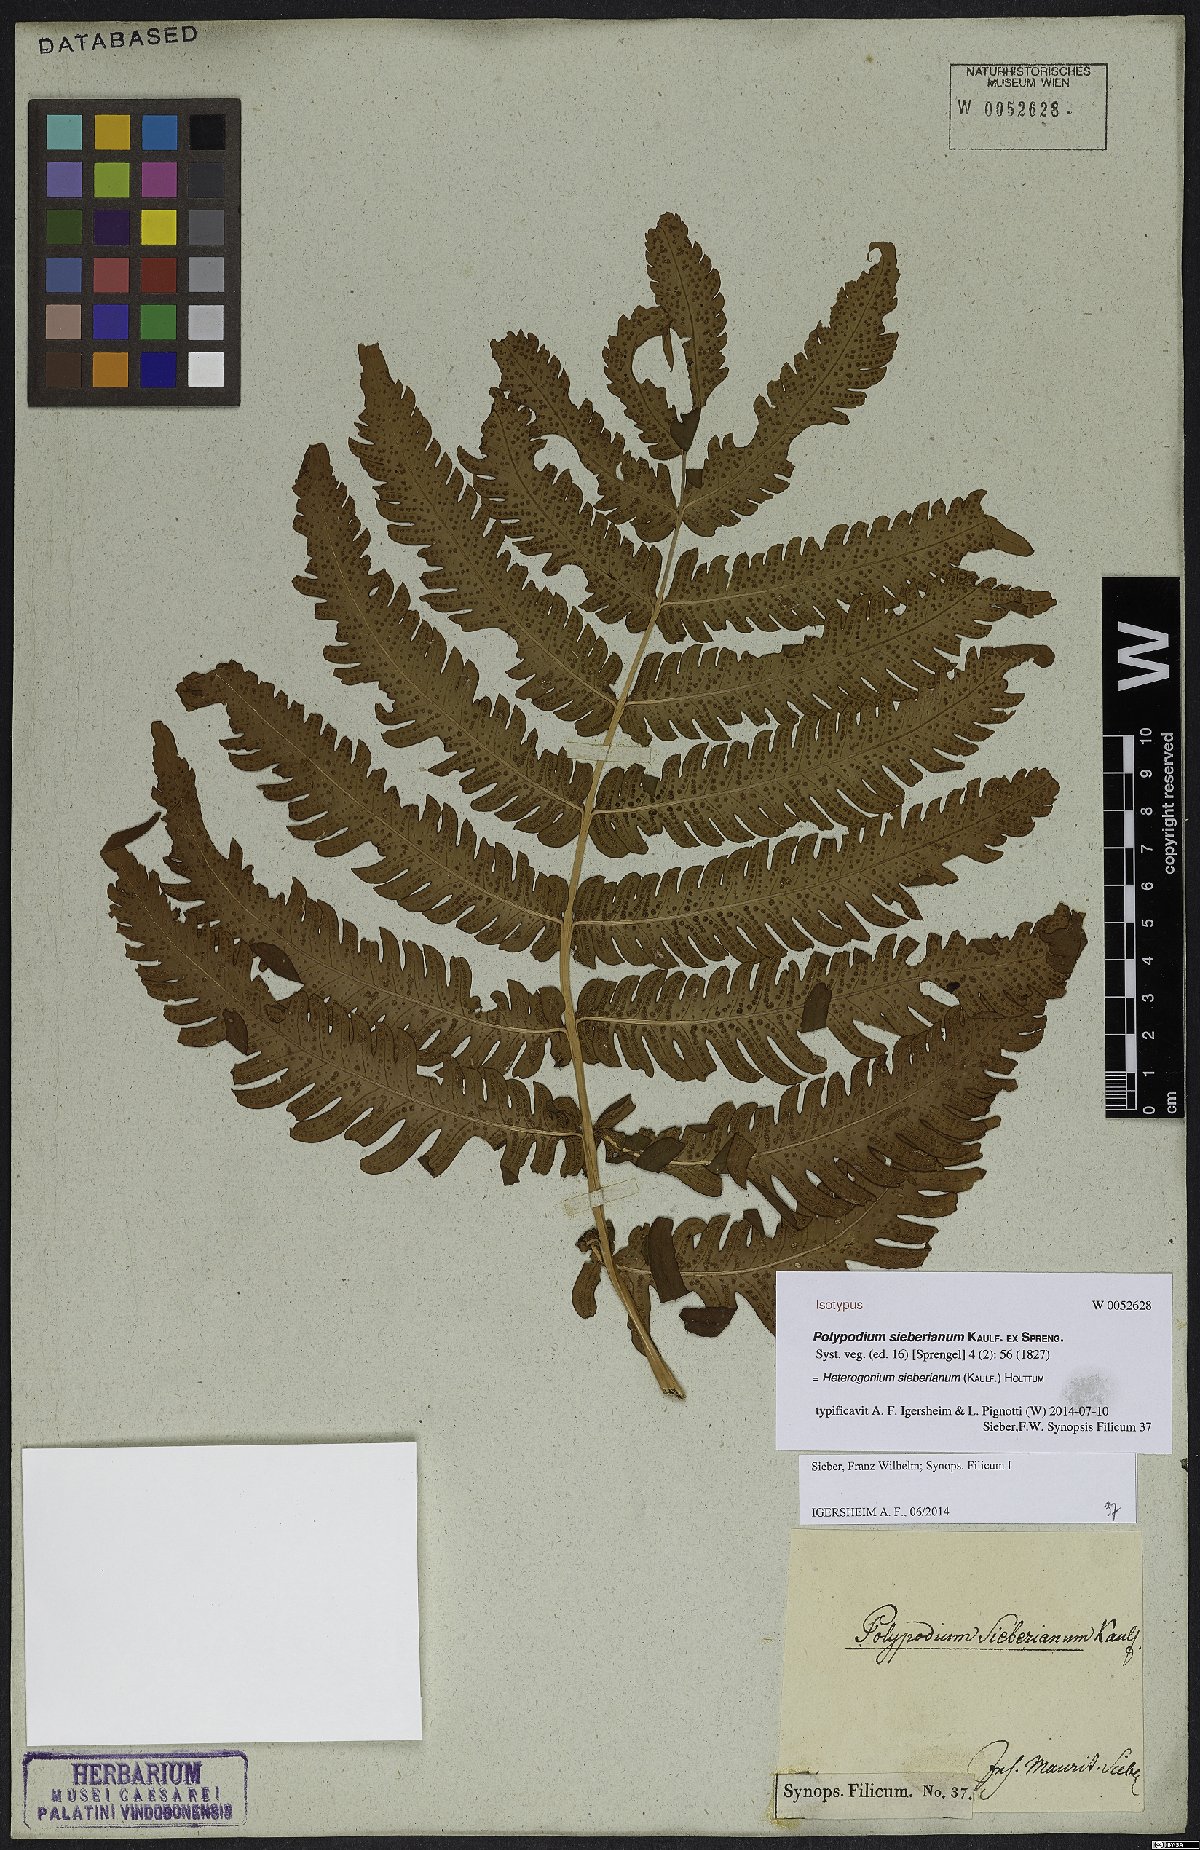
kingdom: Plantae
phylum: Tracheophyta
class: Polypodiopsida
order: Polypodiales
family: Dryopteridaceae
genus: Ctenitis
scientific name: Ctenitis sieberiana
